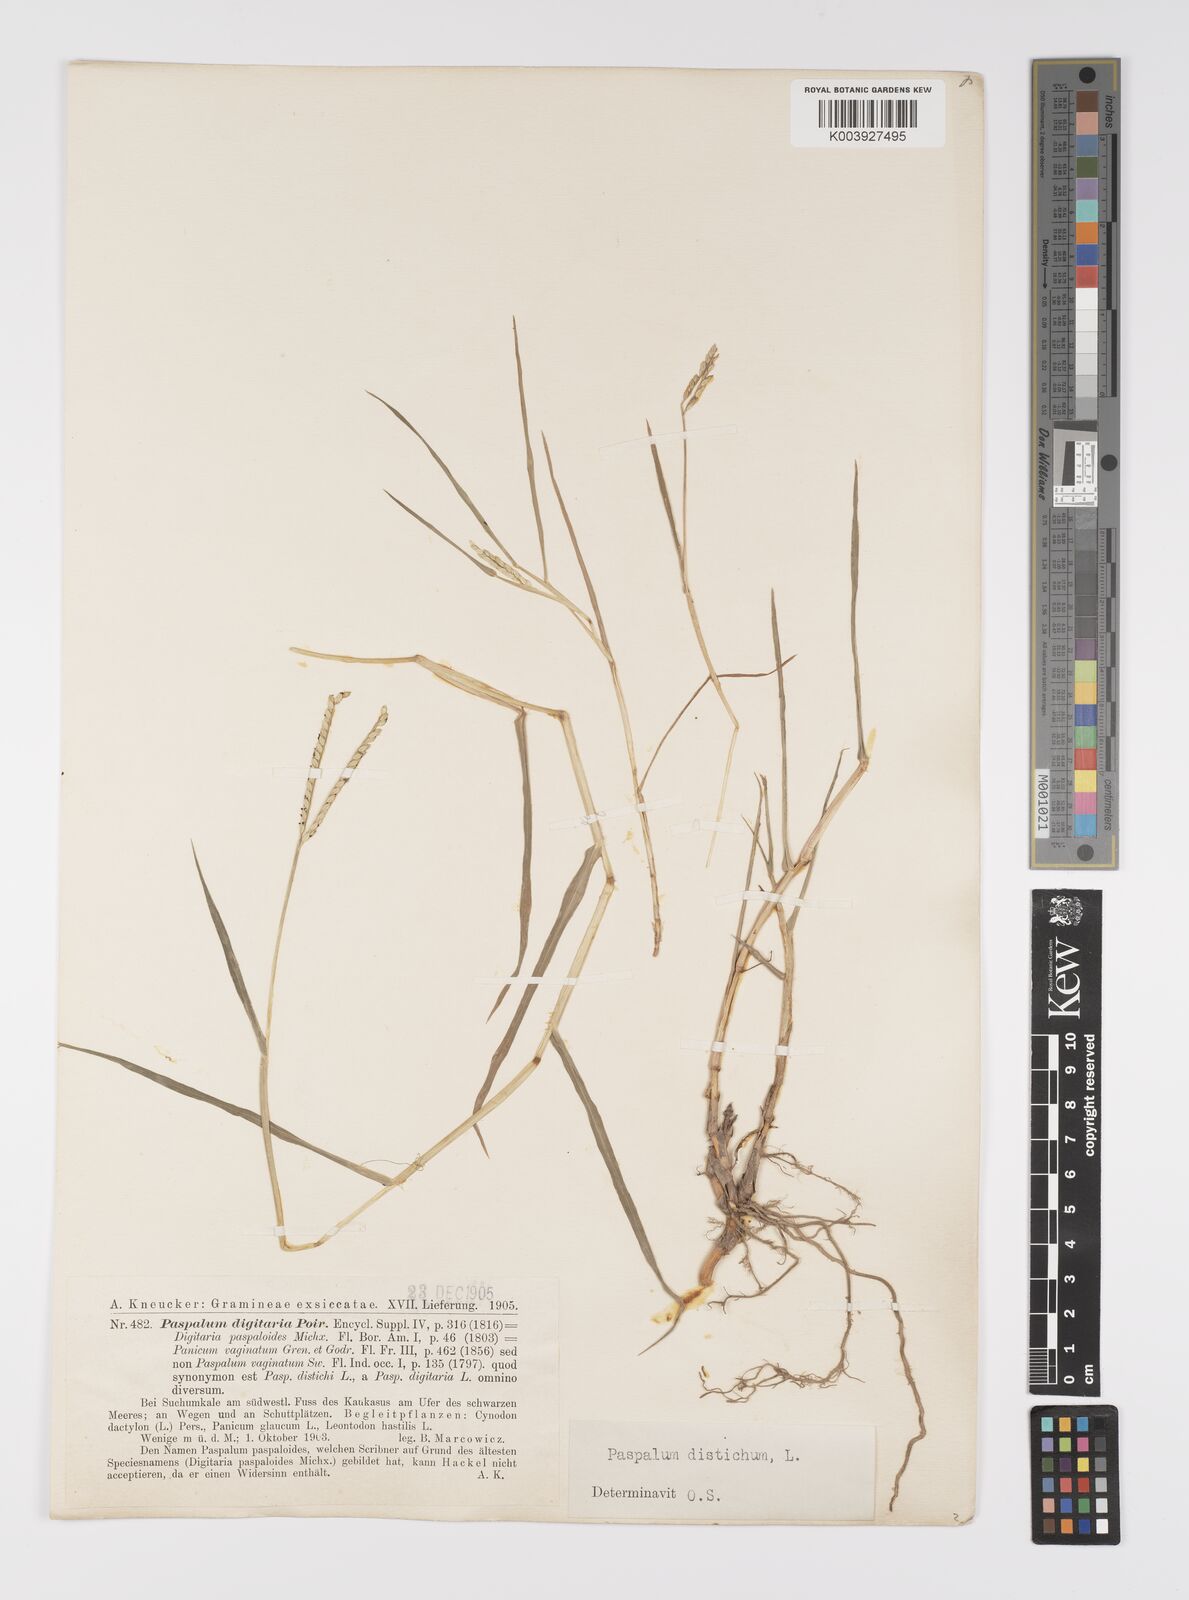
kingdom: Plantae
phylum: Tracheophyta
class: Liliopsida
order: Poales
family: Poaceae
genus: Paspalum
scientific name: Paspalum distichum
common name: Knotgrass
